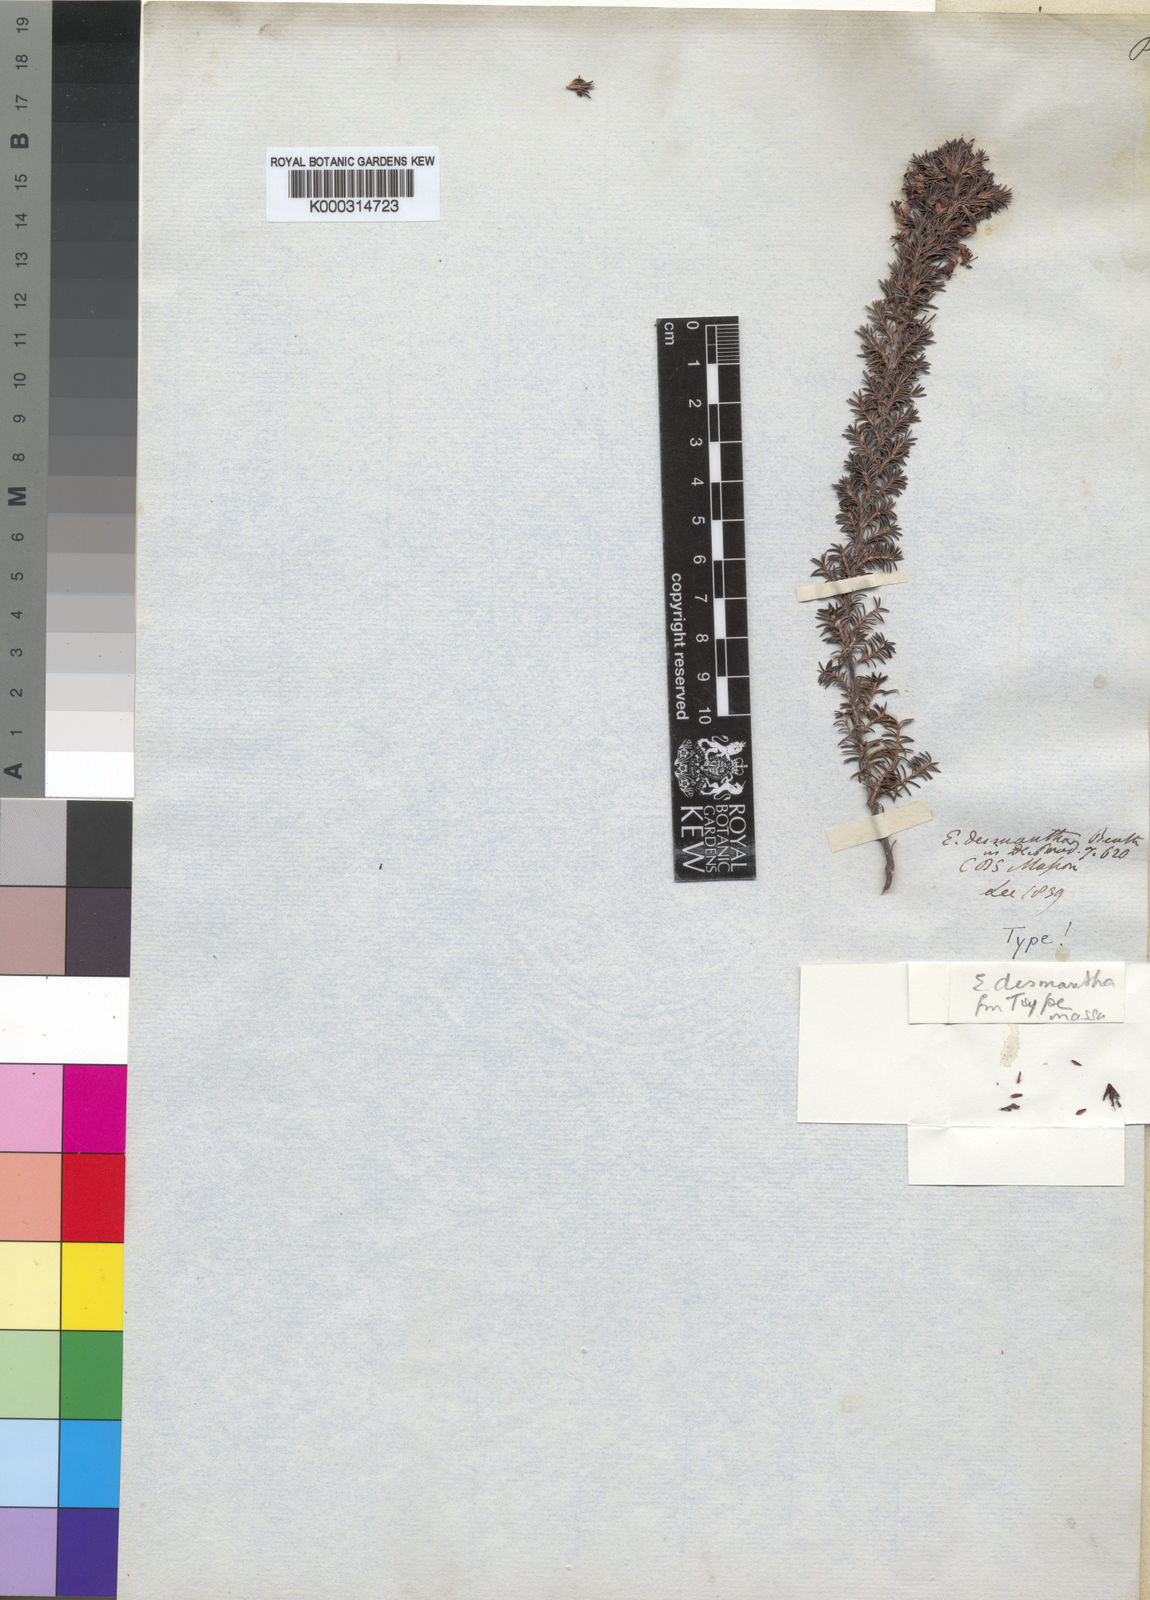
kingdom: Plantae
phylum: Tracheophyta
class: Magnoliopsida
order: Ericales
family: Ericaceae
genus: Erica
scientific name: Erica desmantha
